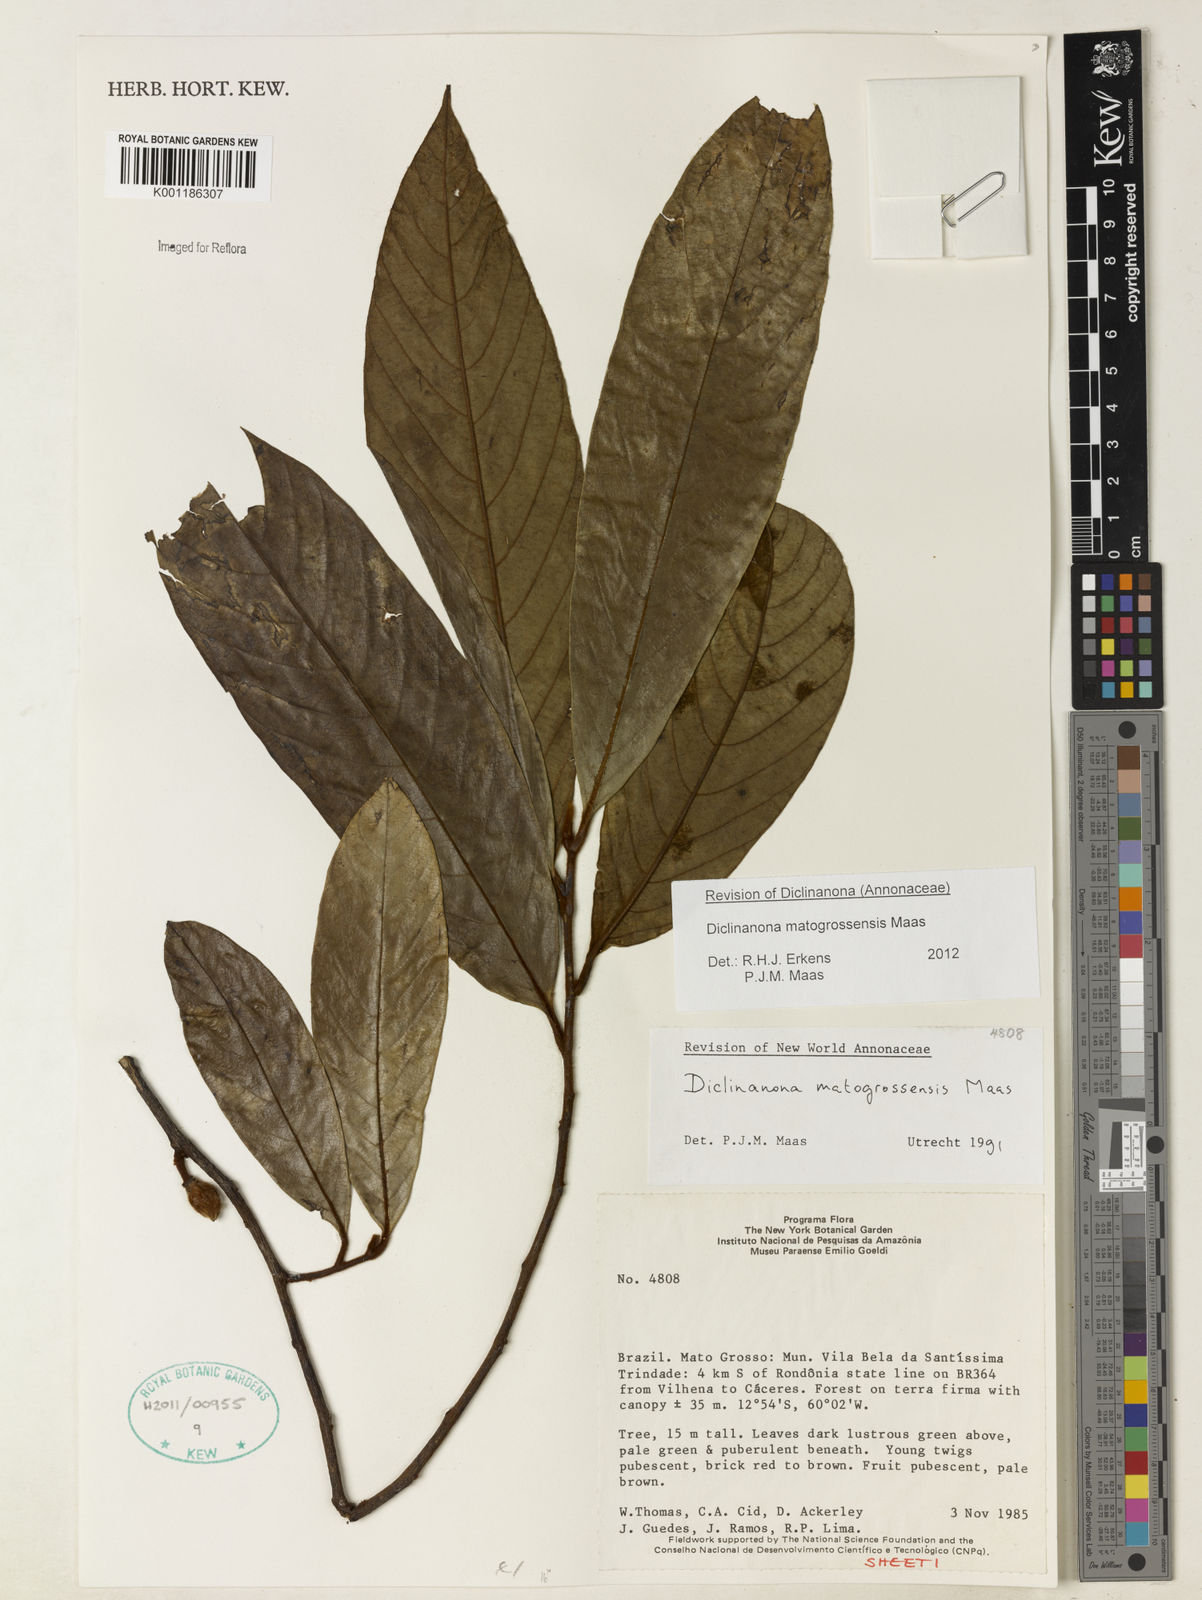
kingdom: Plantae
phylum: Tracheophyta
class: Magnoliopsida
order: Magnoliales
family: Annonaceae
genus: Diclinanona
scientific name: Diclinanona matogrossensis
